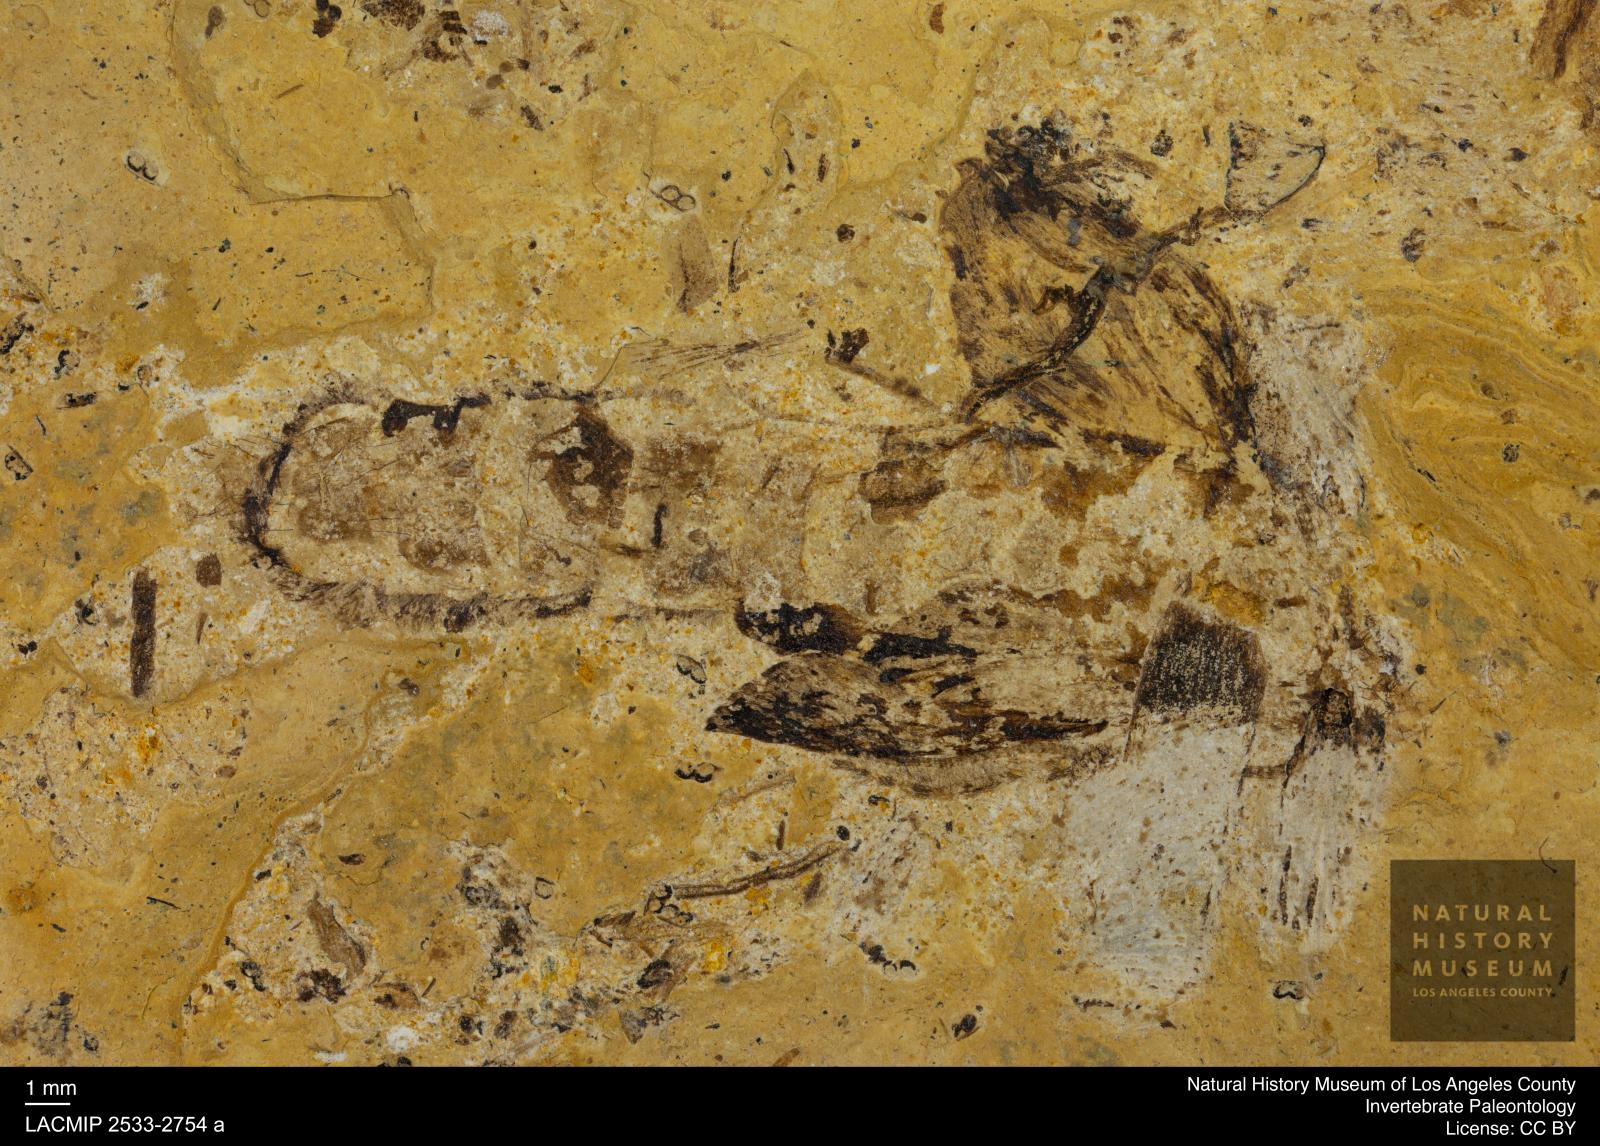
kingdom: Animalia
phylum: Arthropoda
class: Insecta
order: Trichoptera
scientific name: Trichoptera
